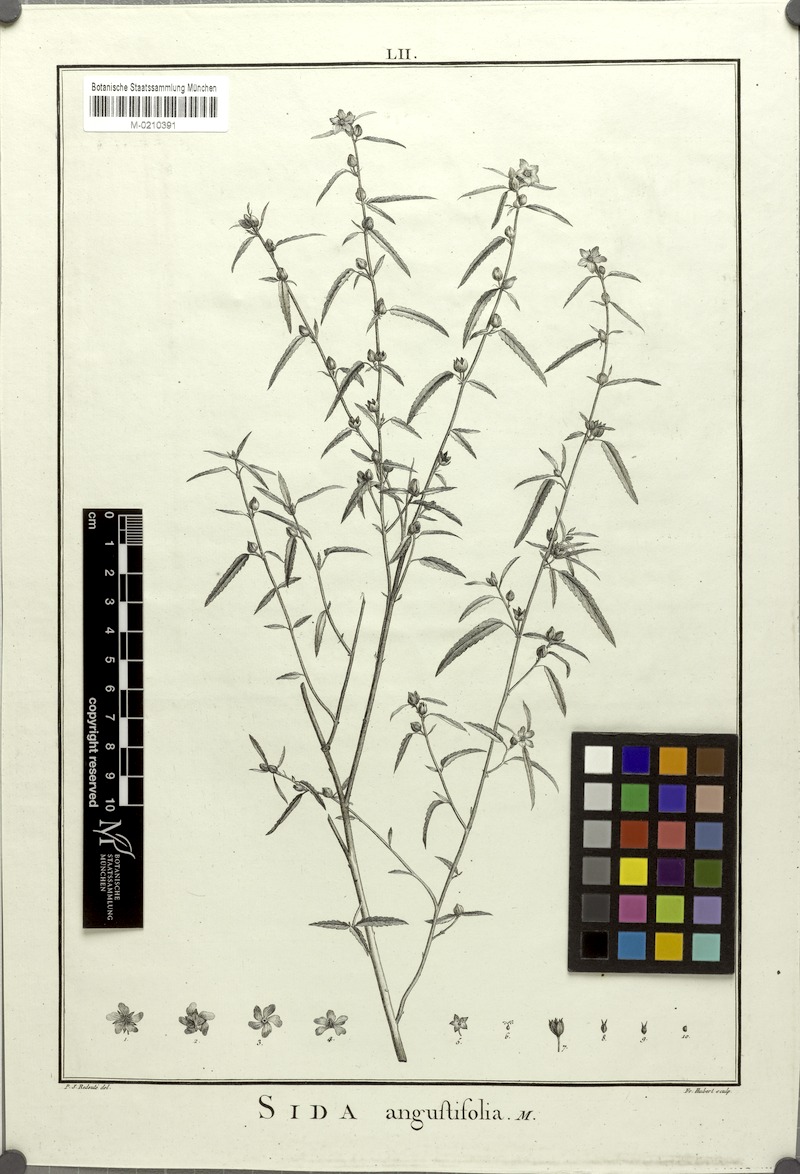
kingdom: Plantae
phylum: Tracheophyta
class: Magnoliopsida
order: Malvales
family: Malvaceae
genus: Sida
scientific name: Sida angustifolia
